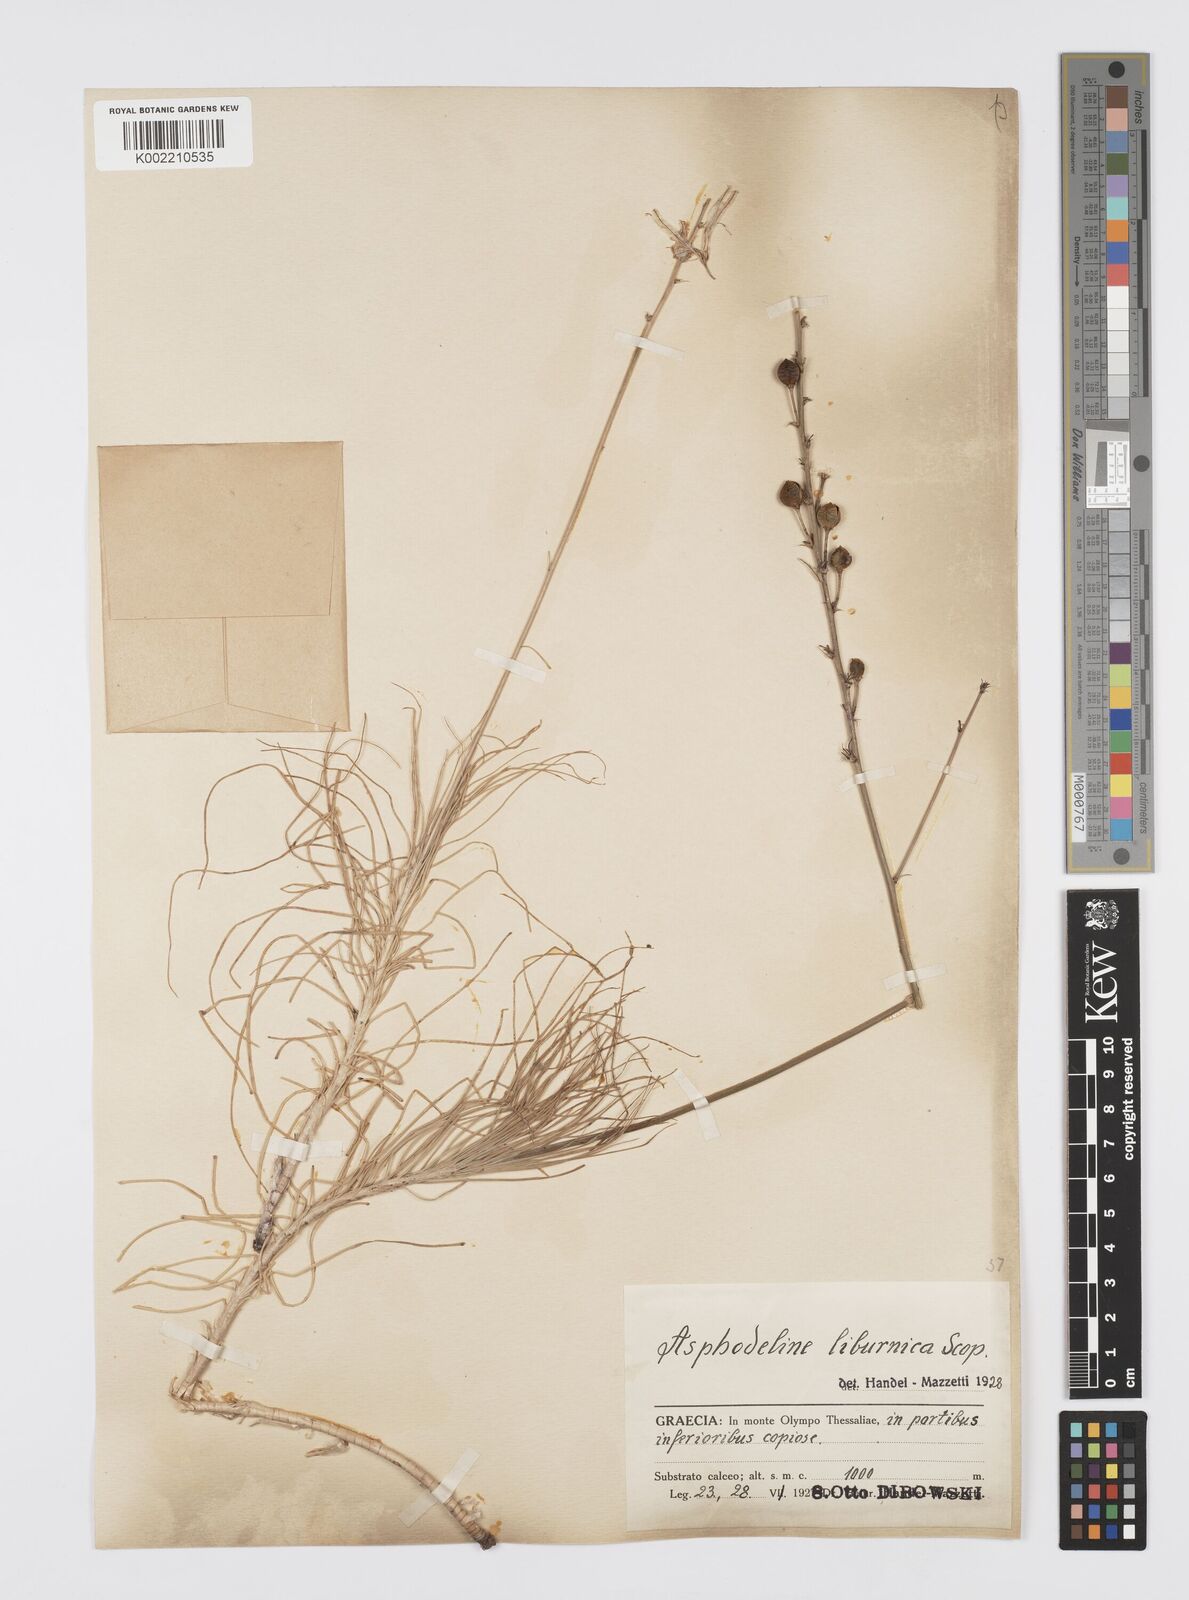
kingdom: Plantae
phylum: Tracheophyta
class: Liliopsida
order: Asparagales
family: Asphodelaceae
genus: Asphodeline
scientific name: Asphodeline liburnica
